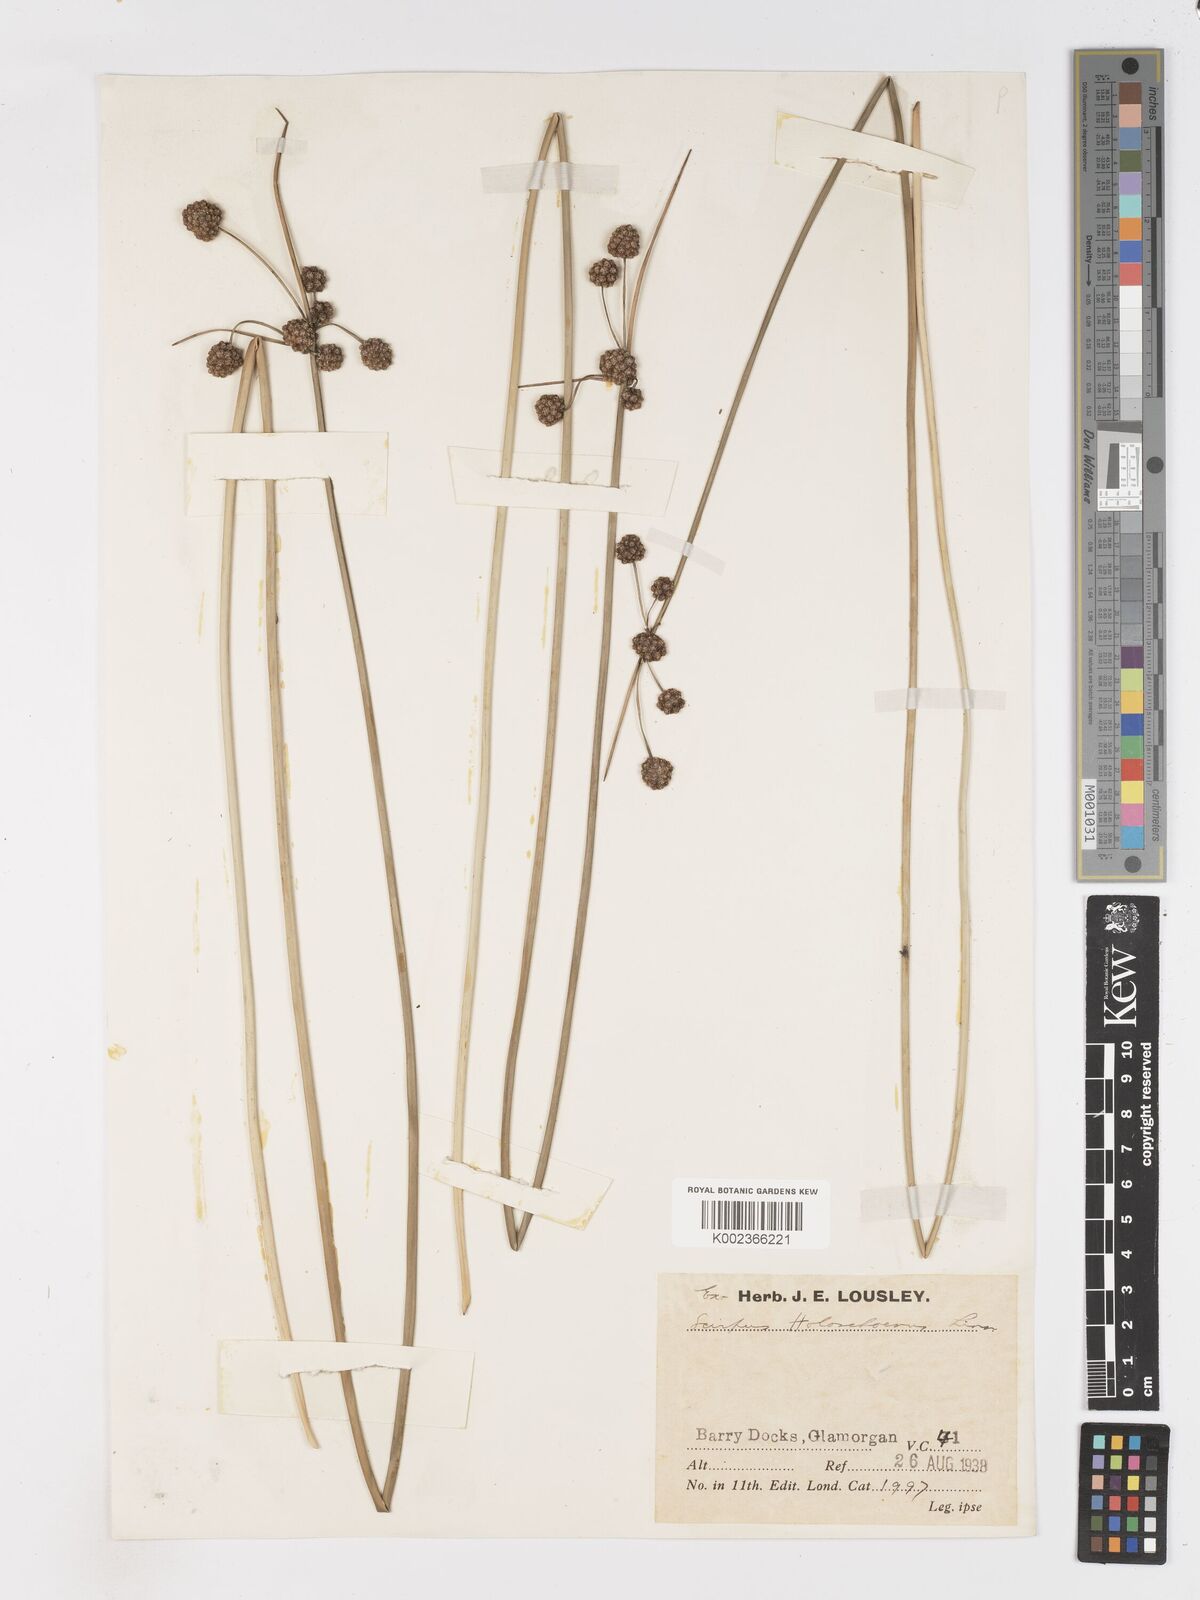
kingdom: Plantae
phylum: Tracheophyta
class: Liliopsida
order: Poales
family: Cyperaceae
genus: Scirpoides
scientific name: Scirpoides holoschoenus
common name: Round-headed club-rush
